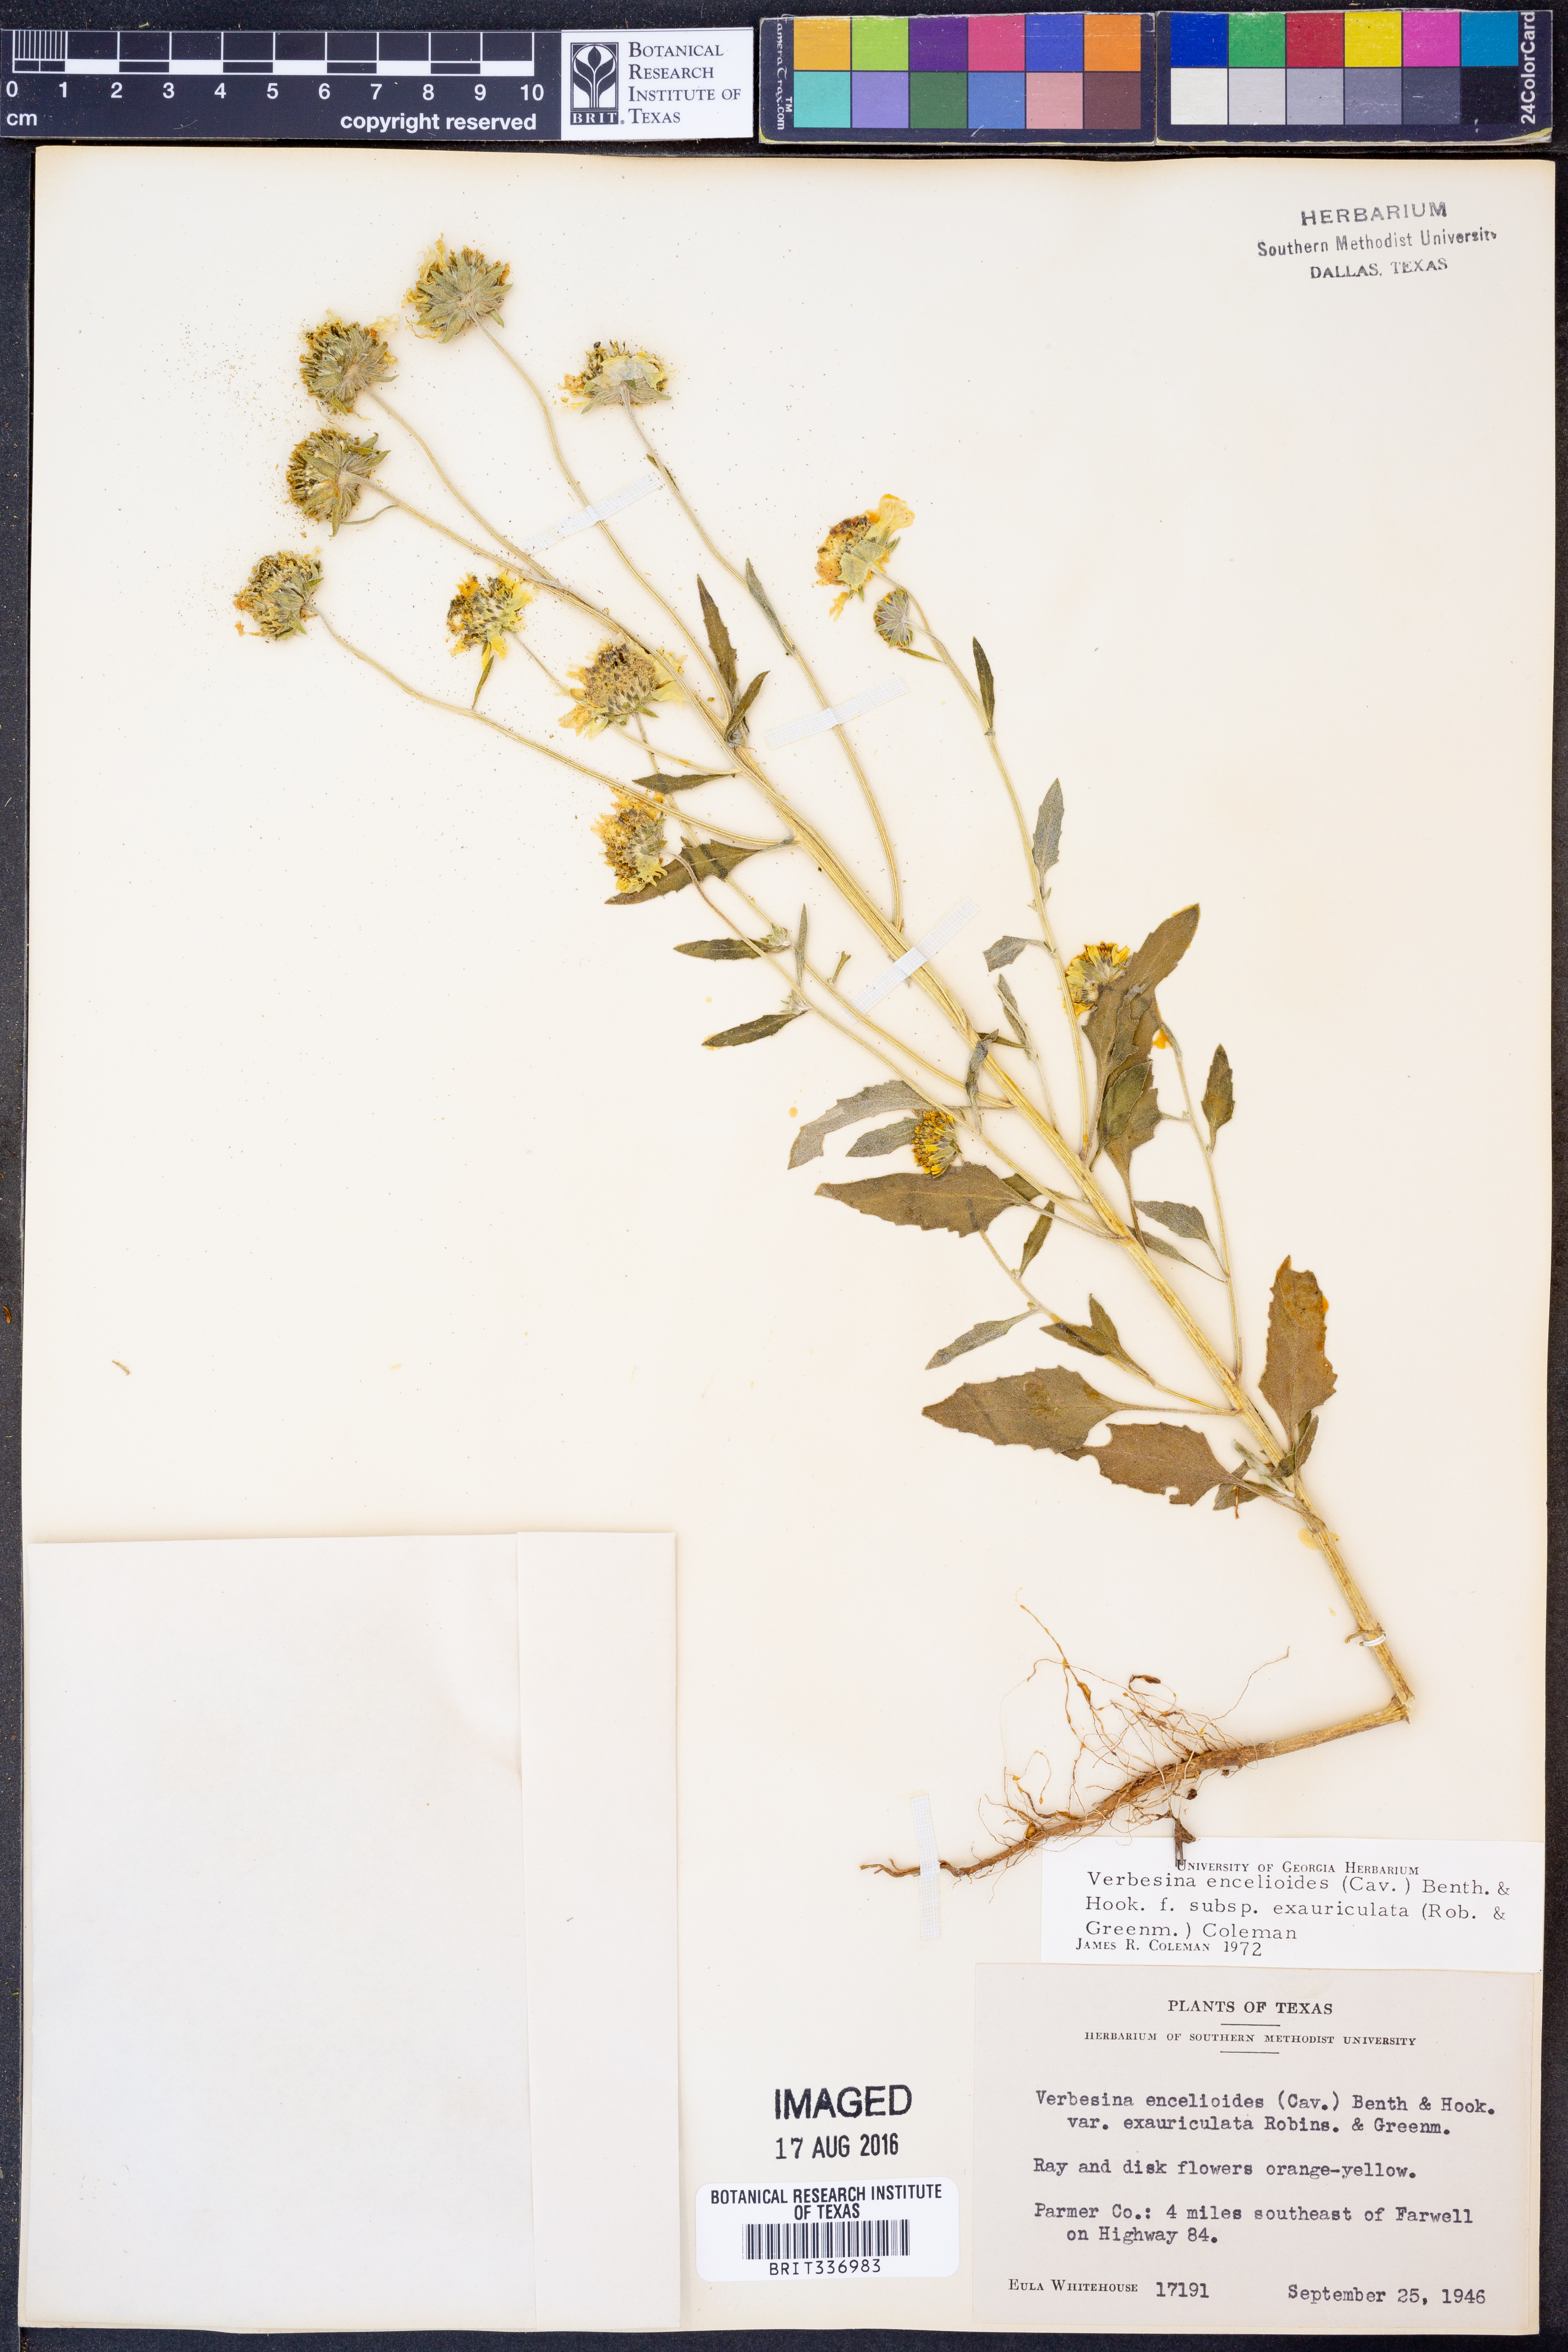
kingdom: Plantae
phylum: Tracheophyta
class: Magnoliopsida
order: Asterales
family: Asteraceae
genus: Verbesina
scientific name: Verbesina encelioides
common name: Golden crownbeard
